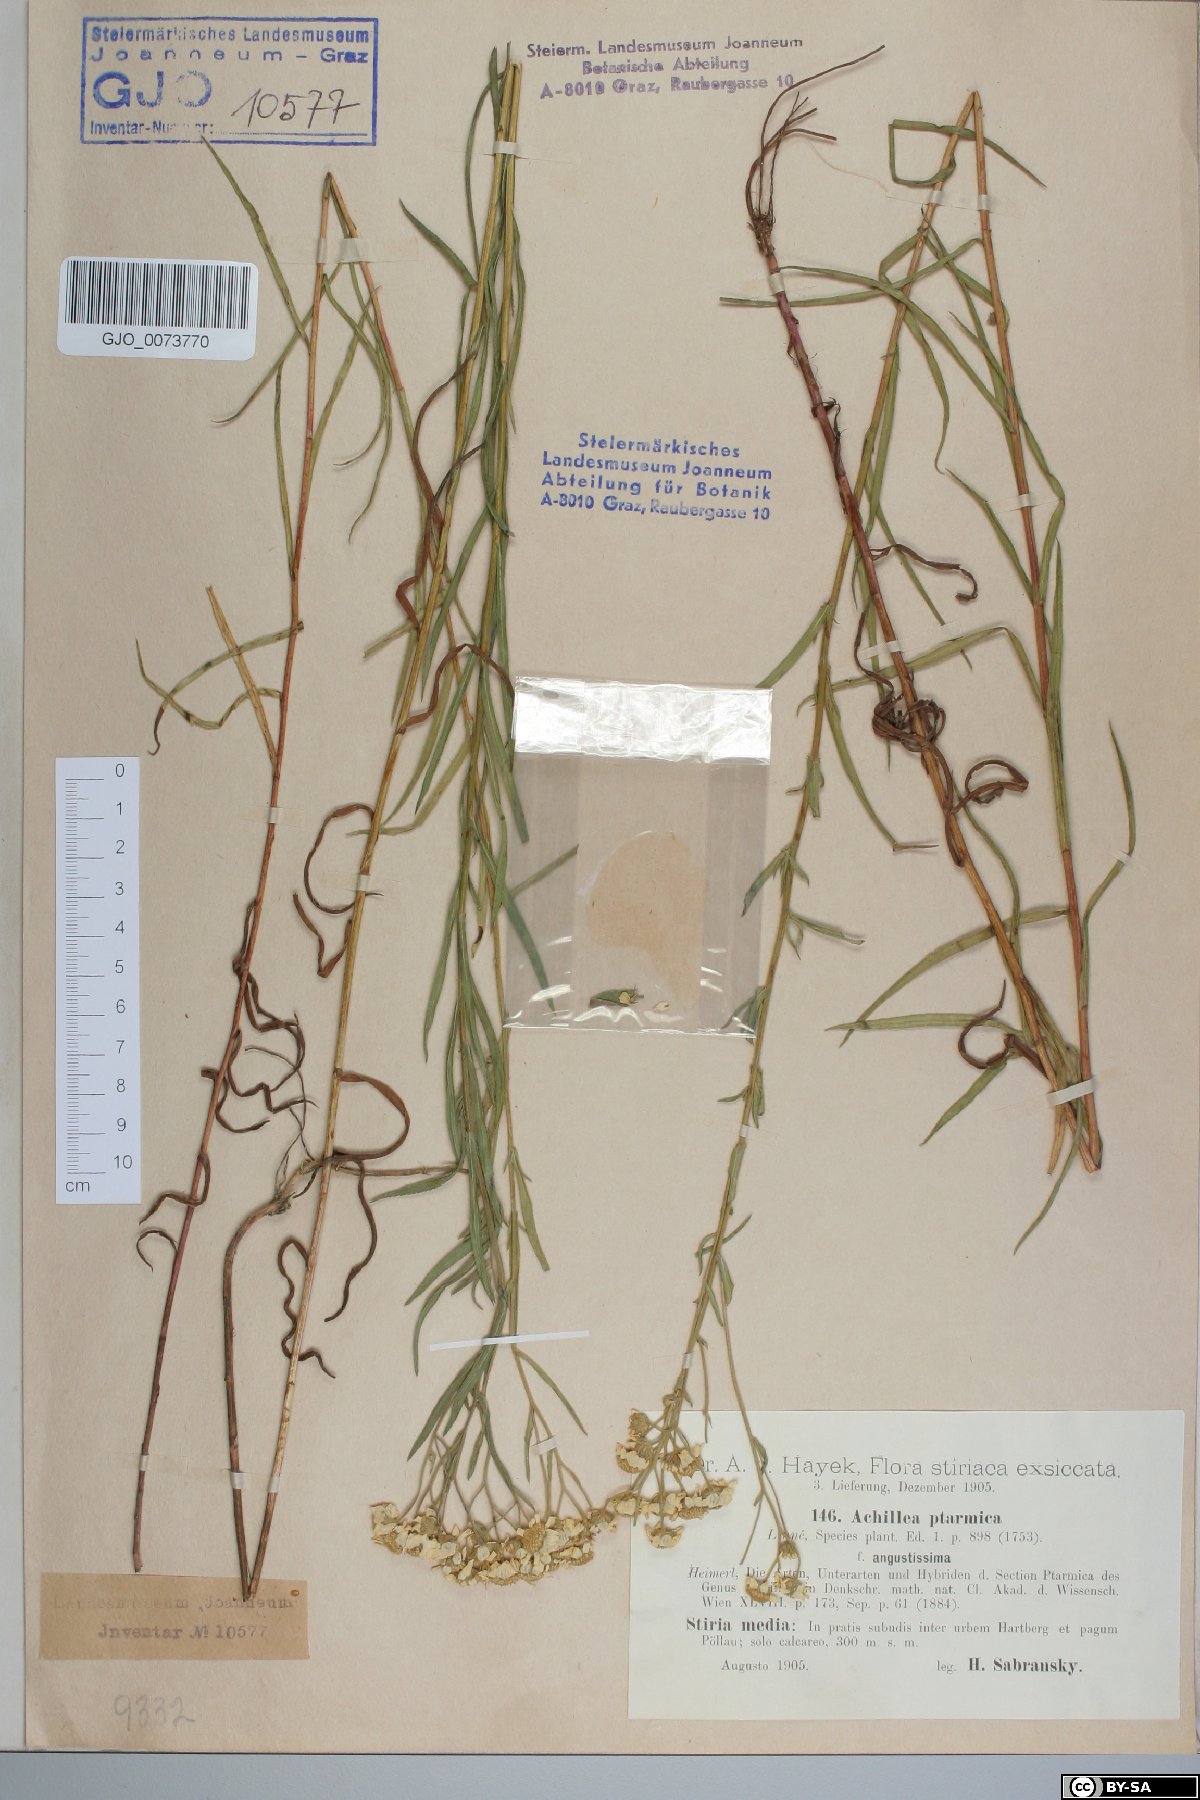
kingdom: Plantae
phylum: Tracheophyta
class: Magnoliopsida
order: Asterales
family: Asteraceae
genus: Achillea
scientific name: Achillea ptarmica
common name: Sneezeweed
